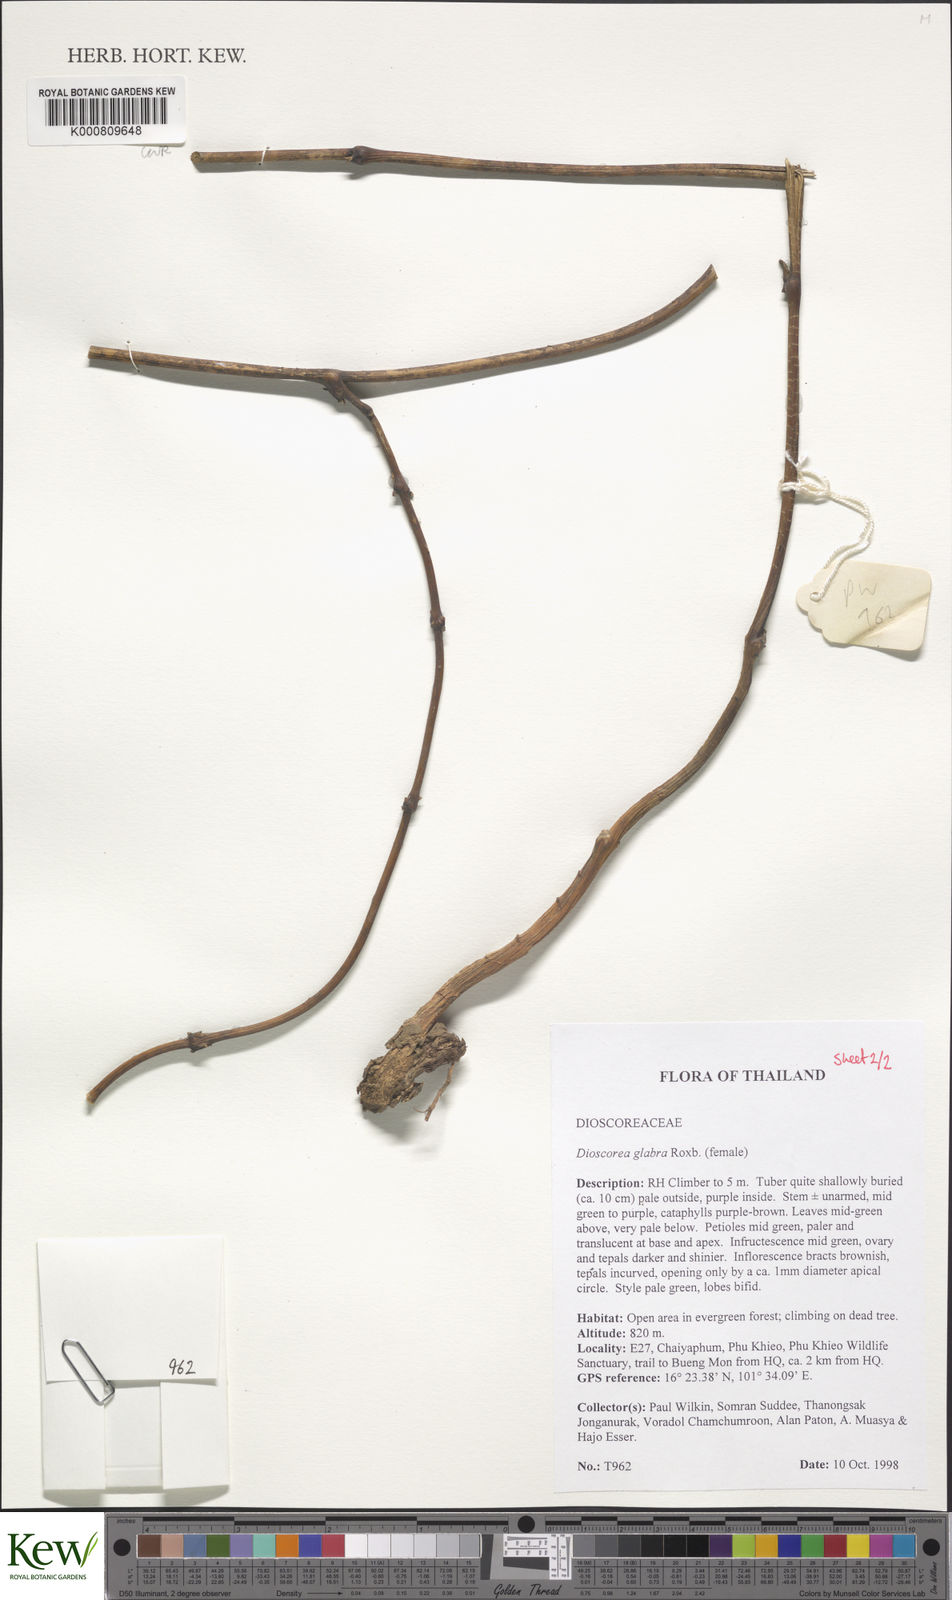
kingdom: Plantae
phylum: Tracheophyta
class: Liliopsida
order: Dioscoreales
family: Dioscoreaceae
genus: Dioscorea
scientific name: Dioscorea glabra
